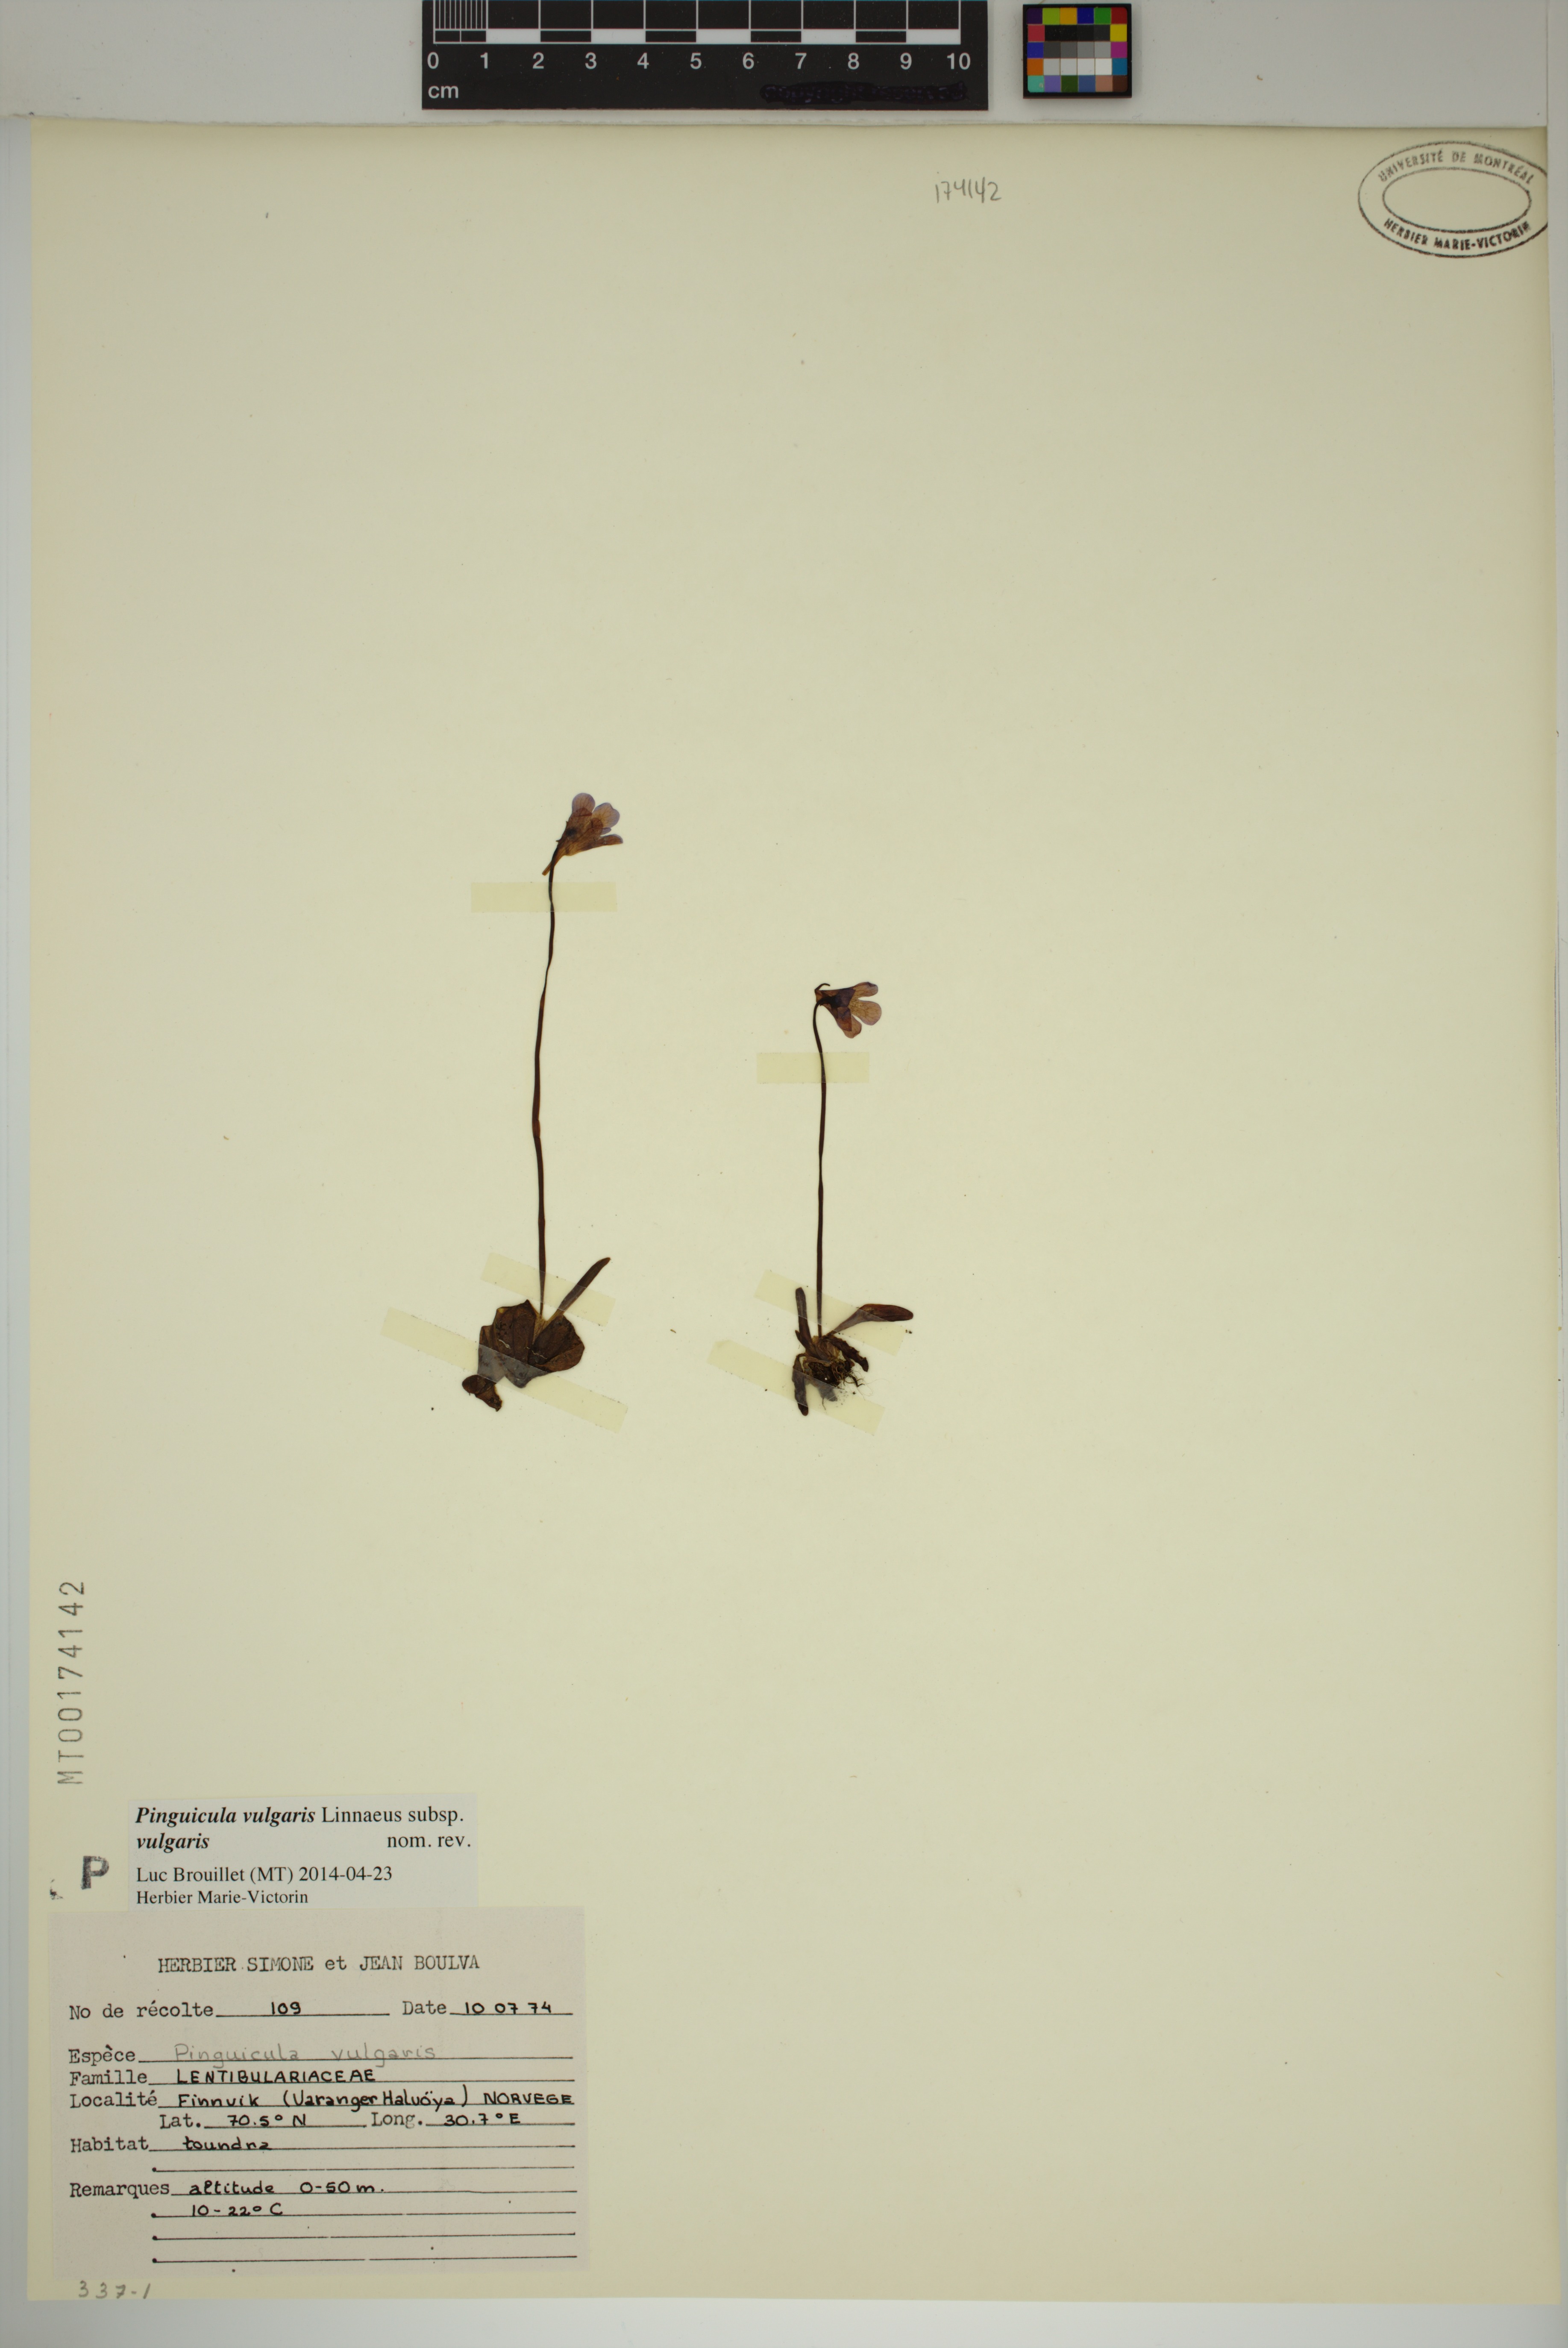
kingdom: Plantae
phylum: Tracheophyta
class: Magnoliopsida
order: Lamiales
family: Lentibulariaceae
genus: Pinguicula
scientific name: Pinguicula vulgaris
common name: Common butterwort
